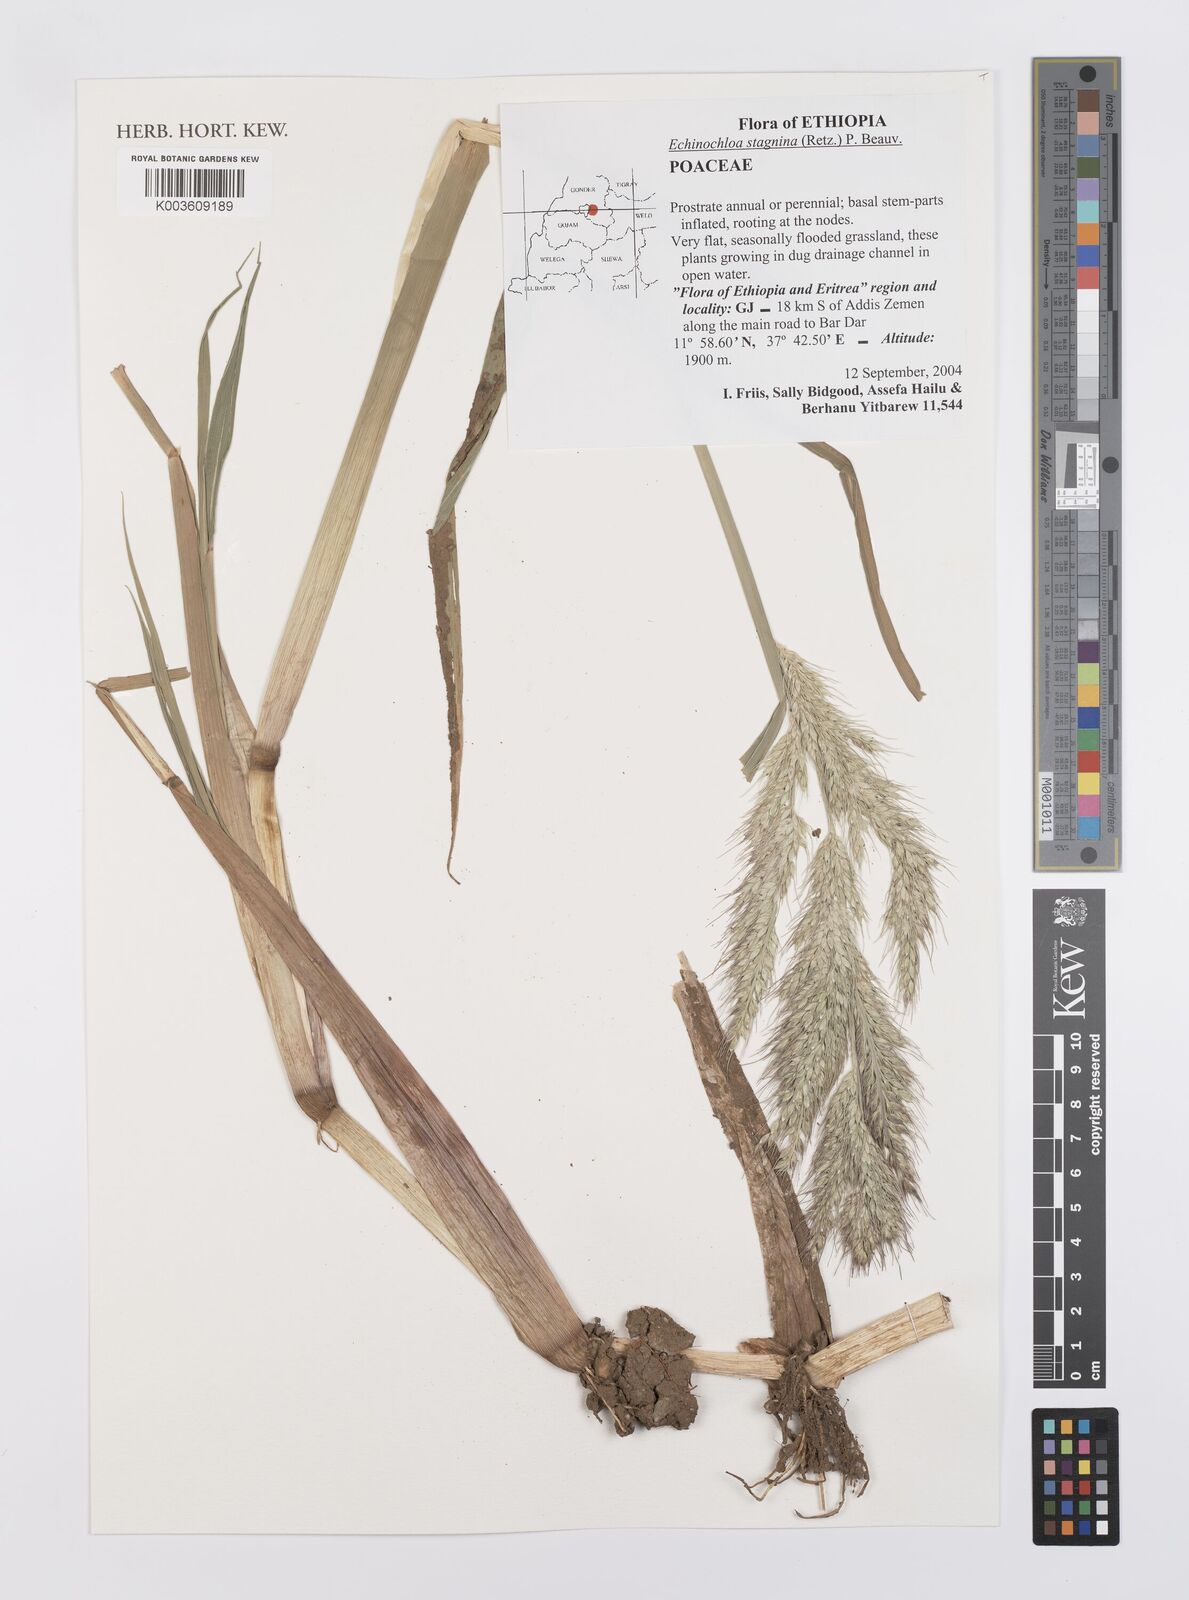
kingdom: Plantae
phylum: Tracheophyta
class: Liliopsida
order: Poales
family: Poaceae
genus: Echinochloa
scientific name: Echinochloa stagnina
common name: Burgu grass
